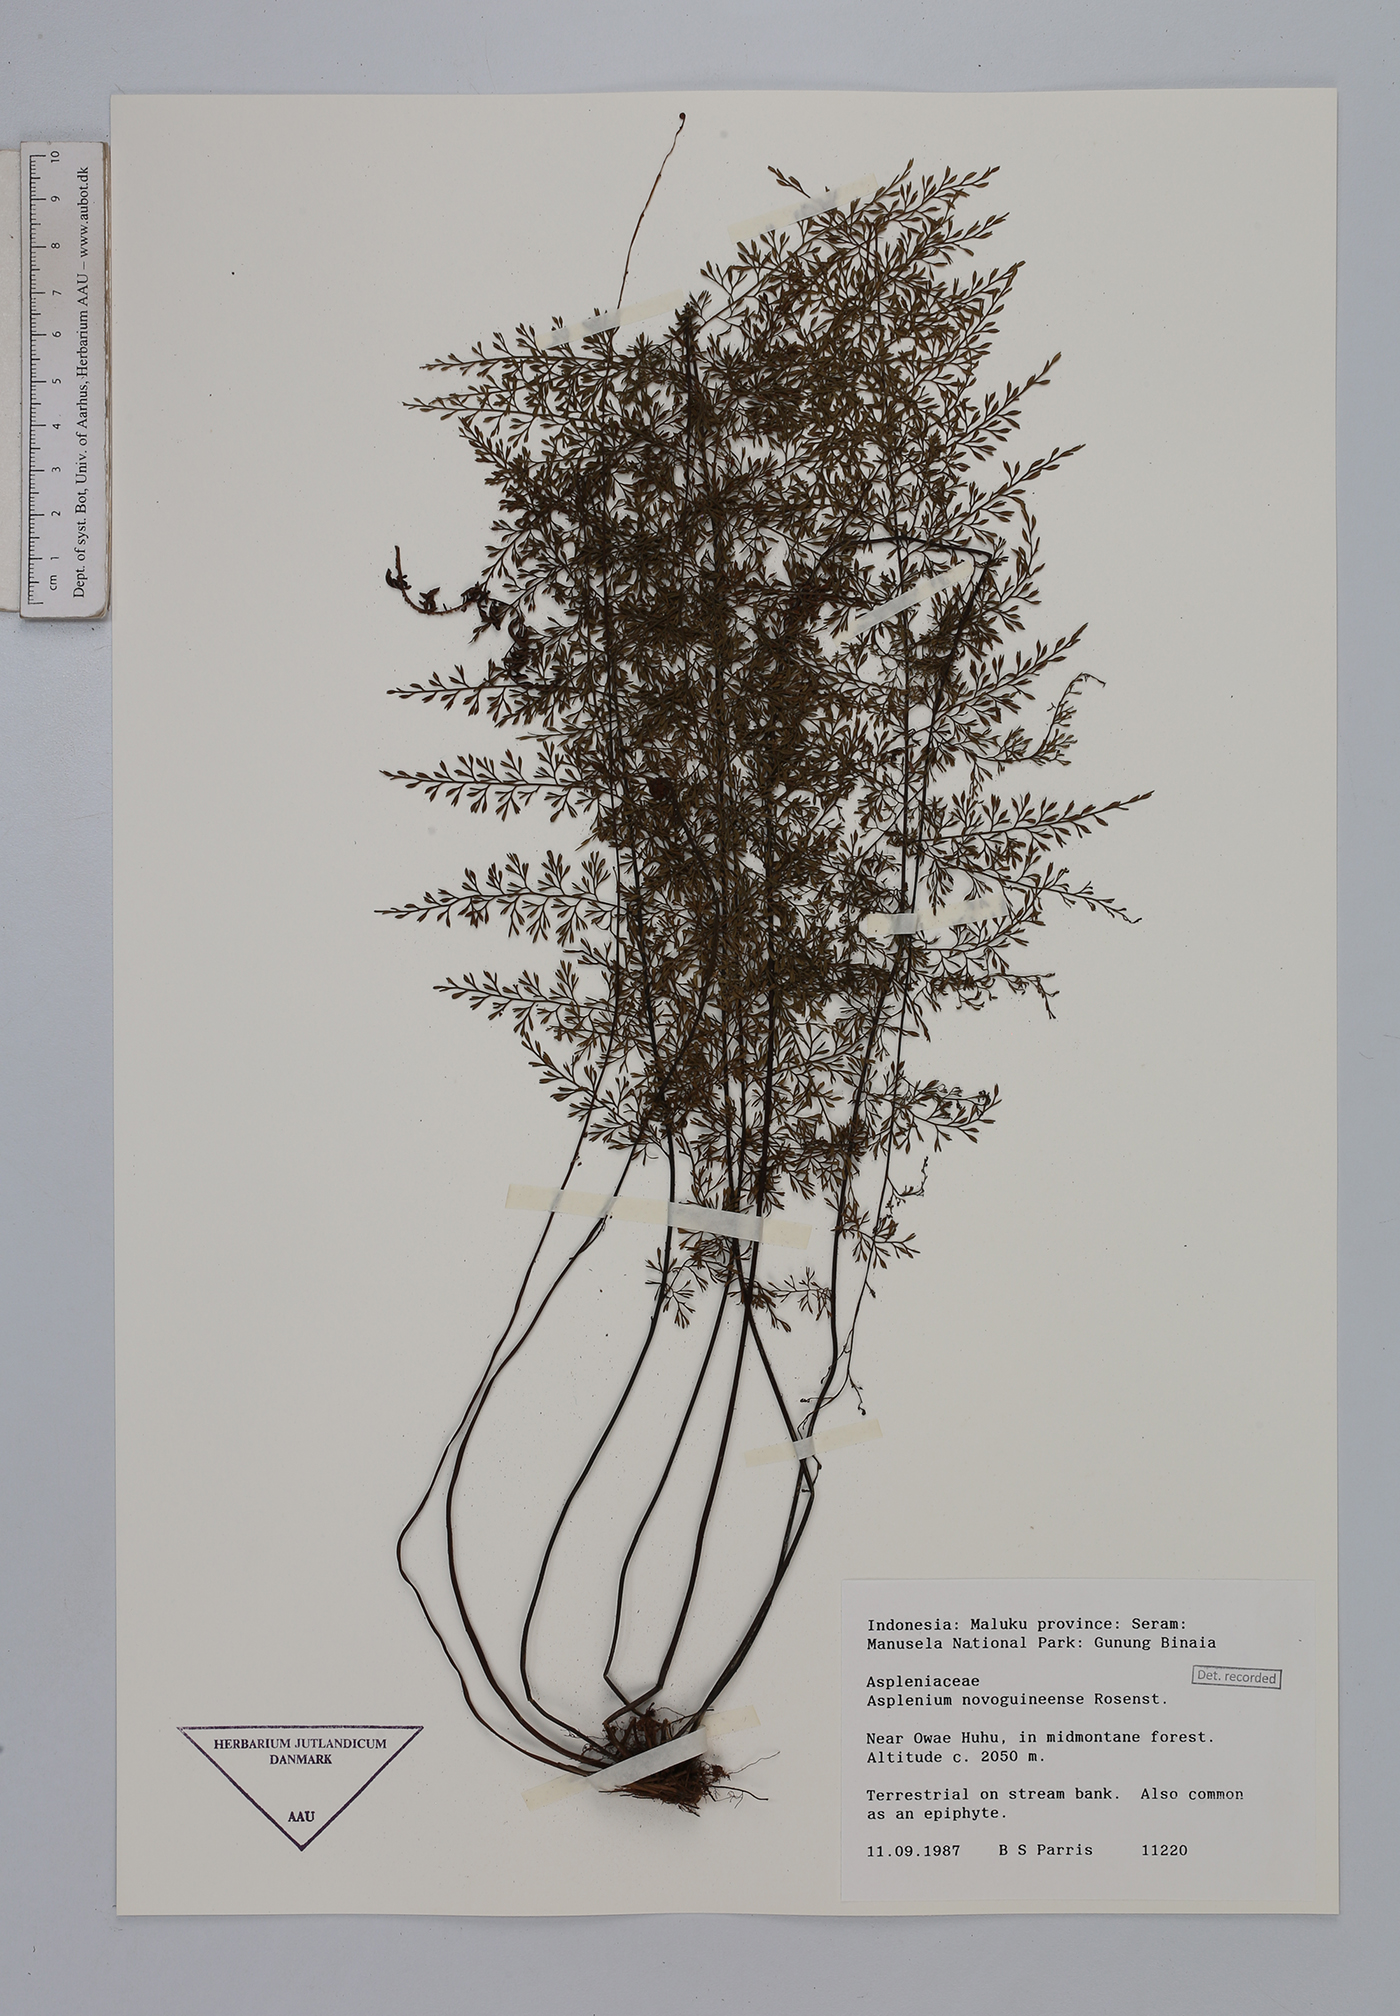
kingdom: Plantae
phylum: Tracheophyta
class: Polypodiopsida
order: Polypodiales
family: Aspleniaceae
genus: Asplenium
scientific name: Asplenium novoguineense
